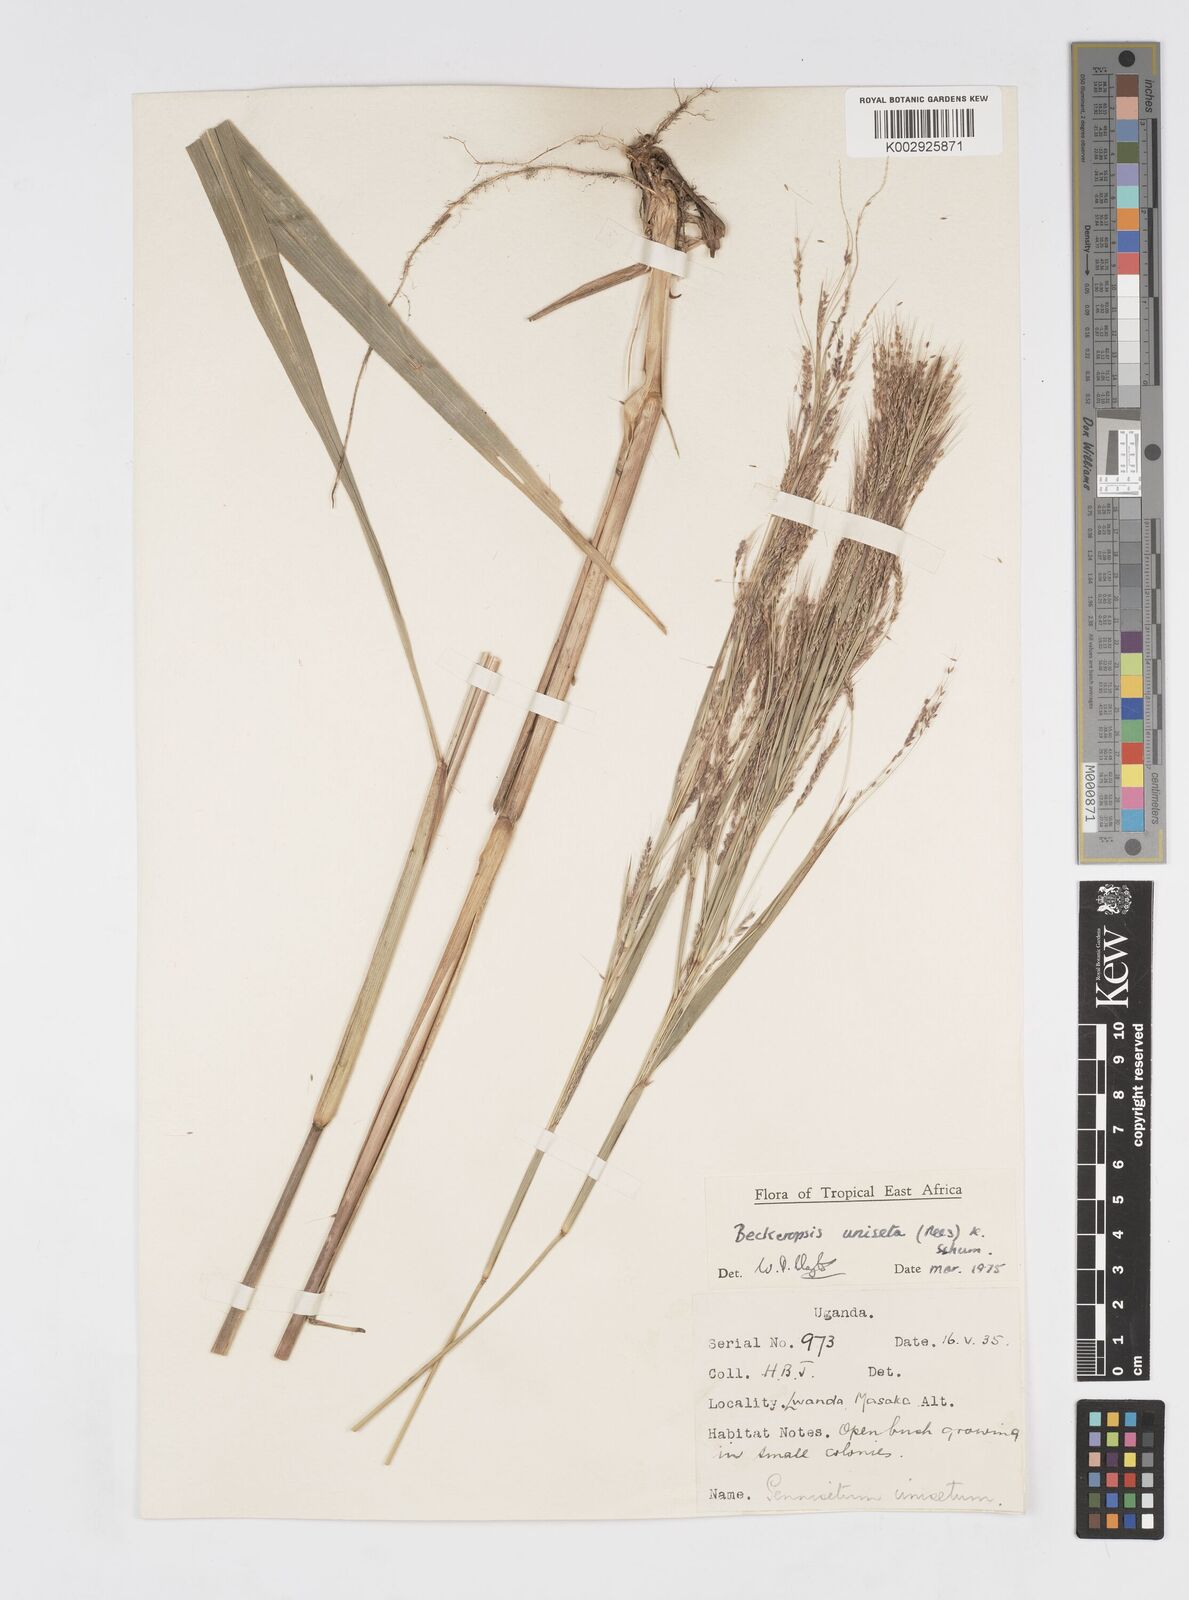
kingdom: Plantae
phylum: Tracheophyta
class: Liliopsida
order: Poales
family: Poaceae
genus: Cenchrus
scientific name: Cenchrus unisetus
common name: Natal grass
